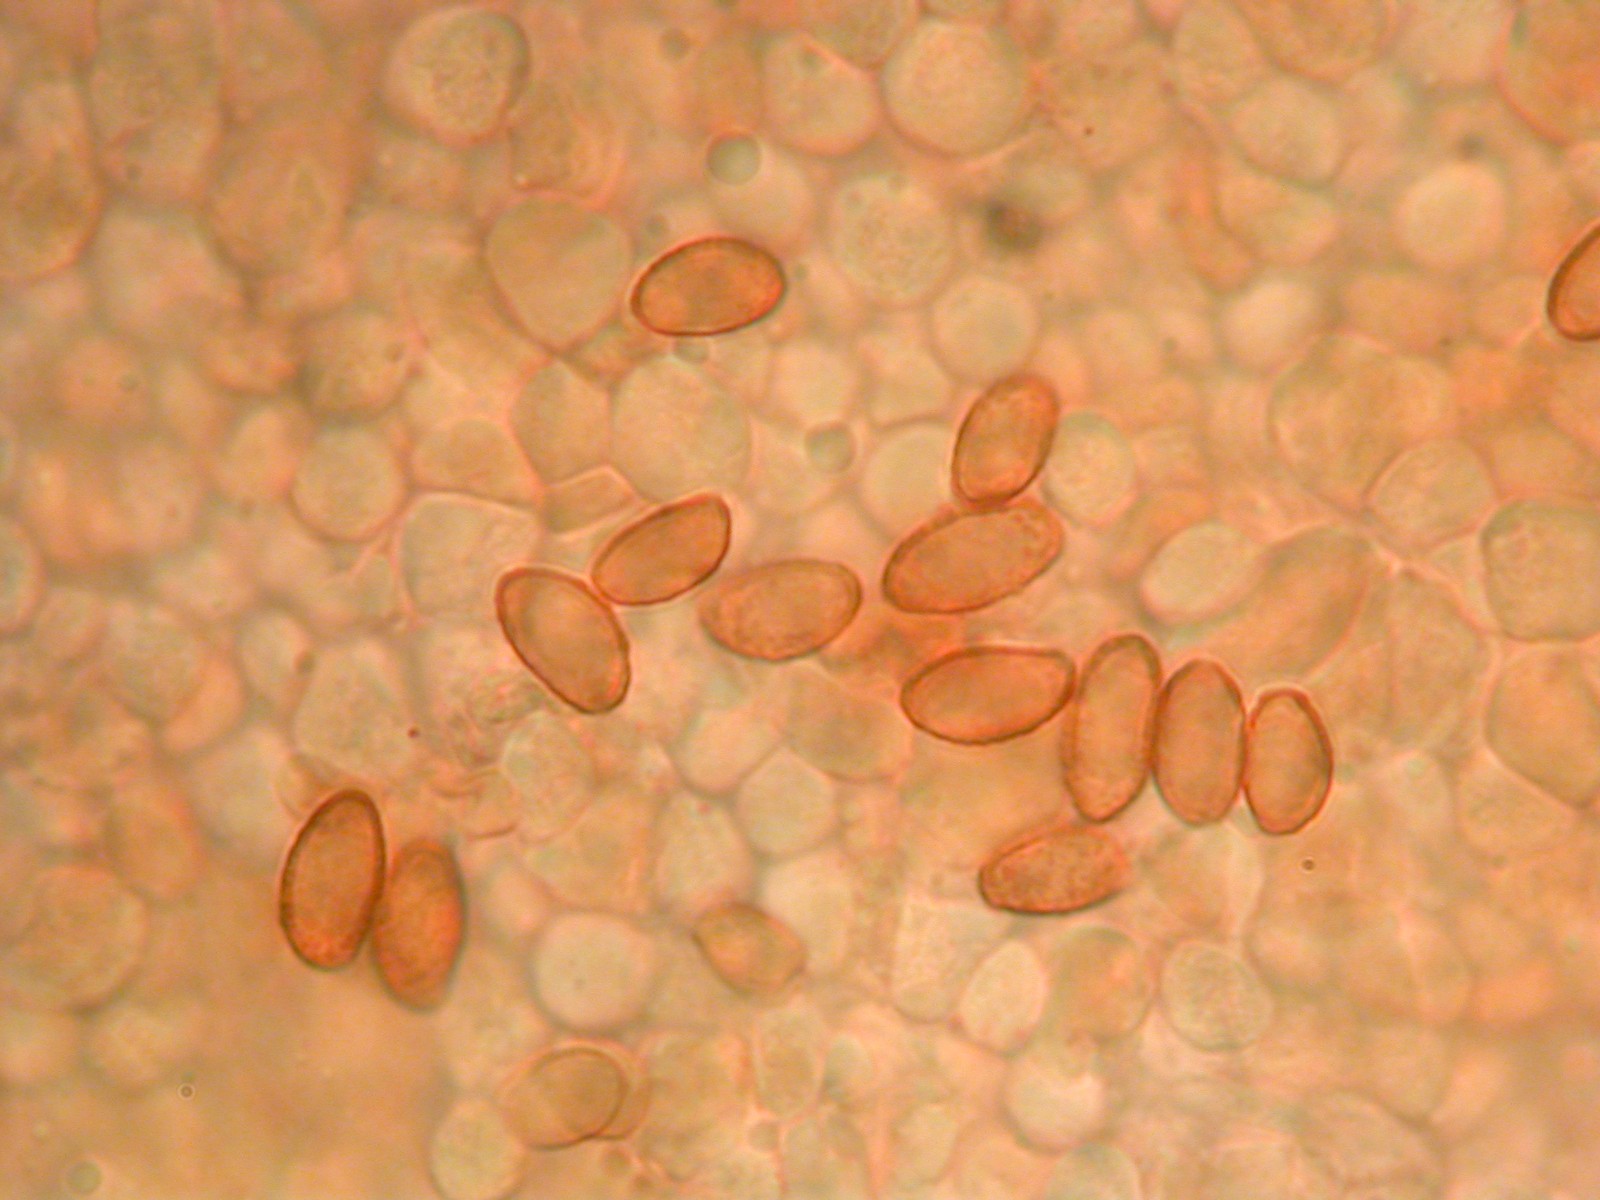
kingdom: Fungi
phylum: Basidiomycota
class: Agaricomycetes
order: Agaricales
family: Cortinariaceae
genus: Cortinarius
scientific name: Cortinarius laetus
